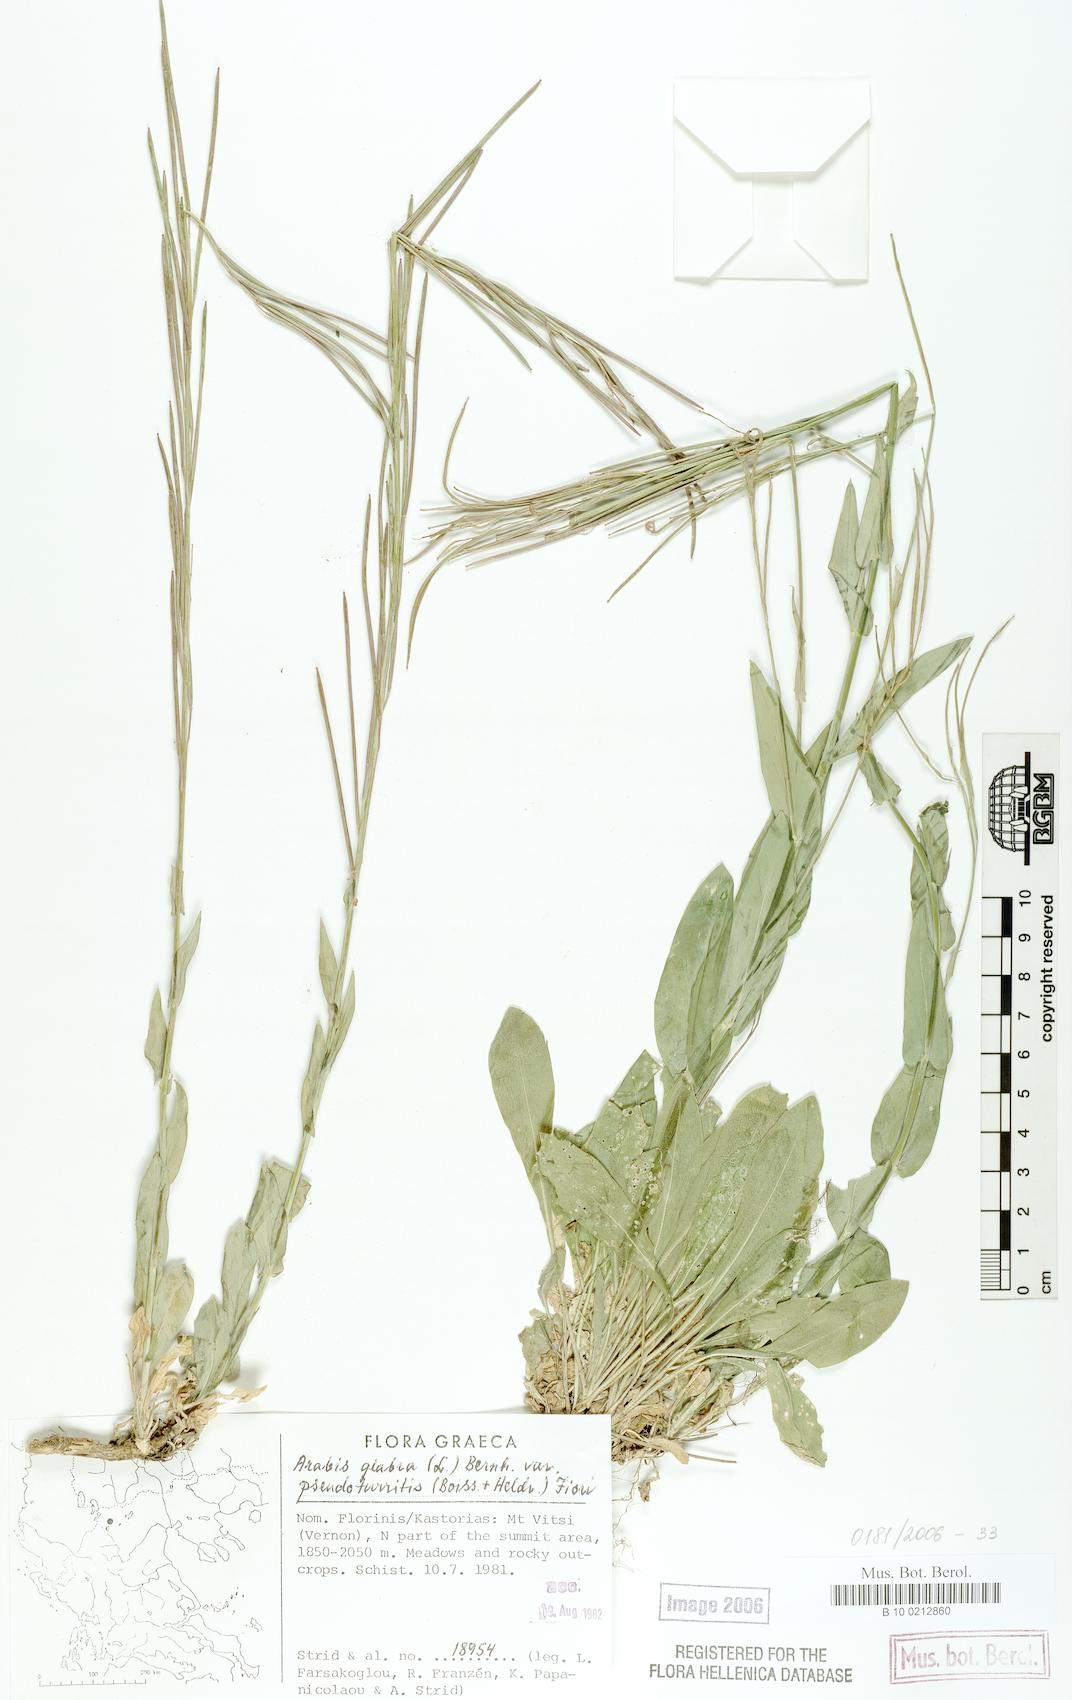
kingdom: Plantae
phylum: Tracheophyta
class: Magnoliopsida
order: Brassicales
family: Brassicaceae
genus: Turritis
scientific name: Turritis glabra
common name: Tower rockcress
